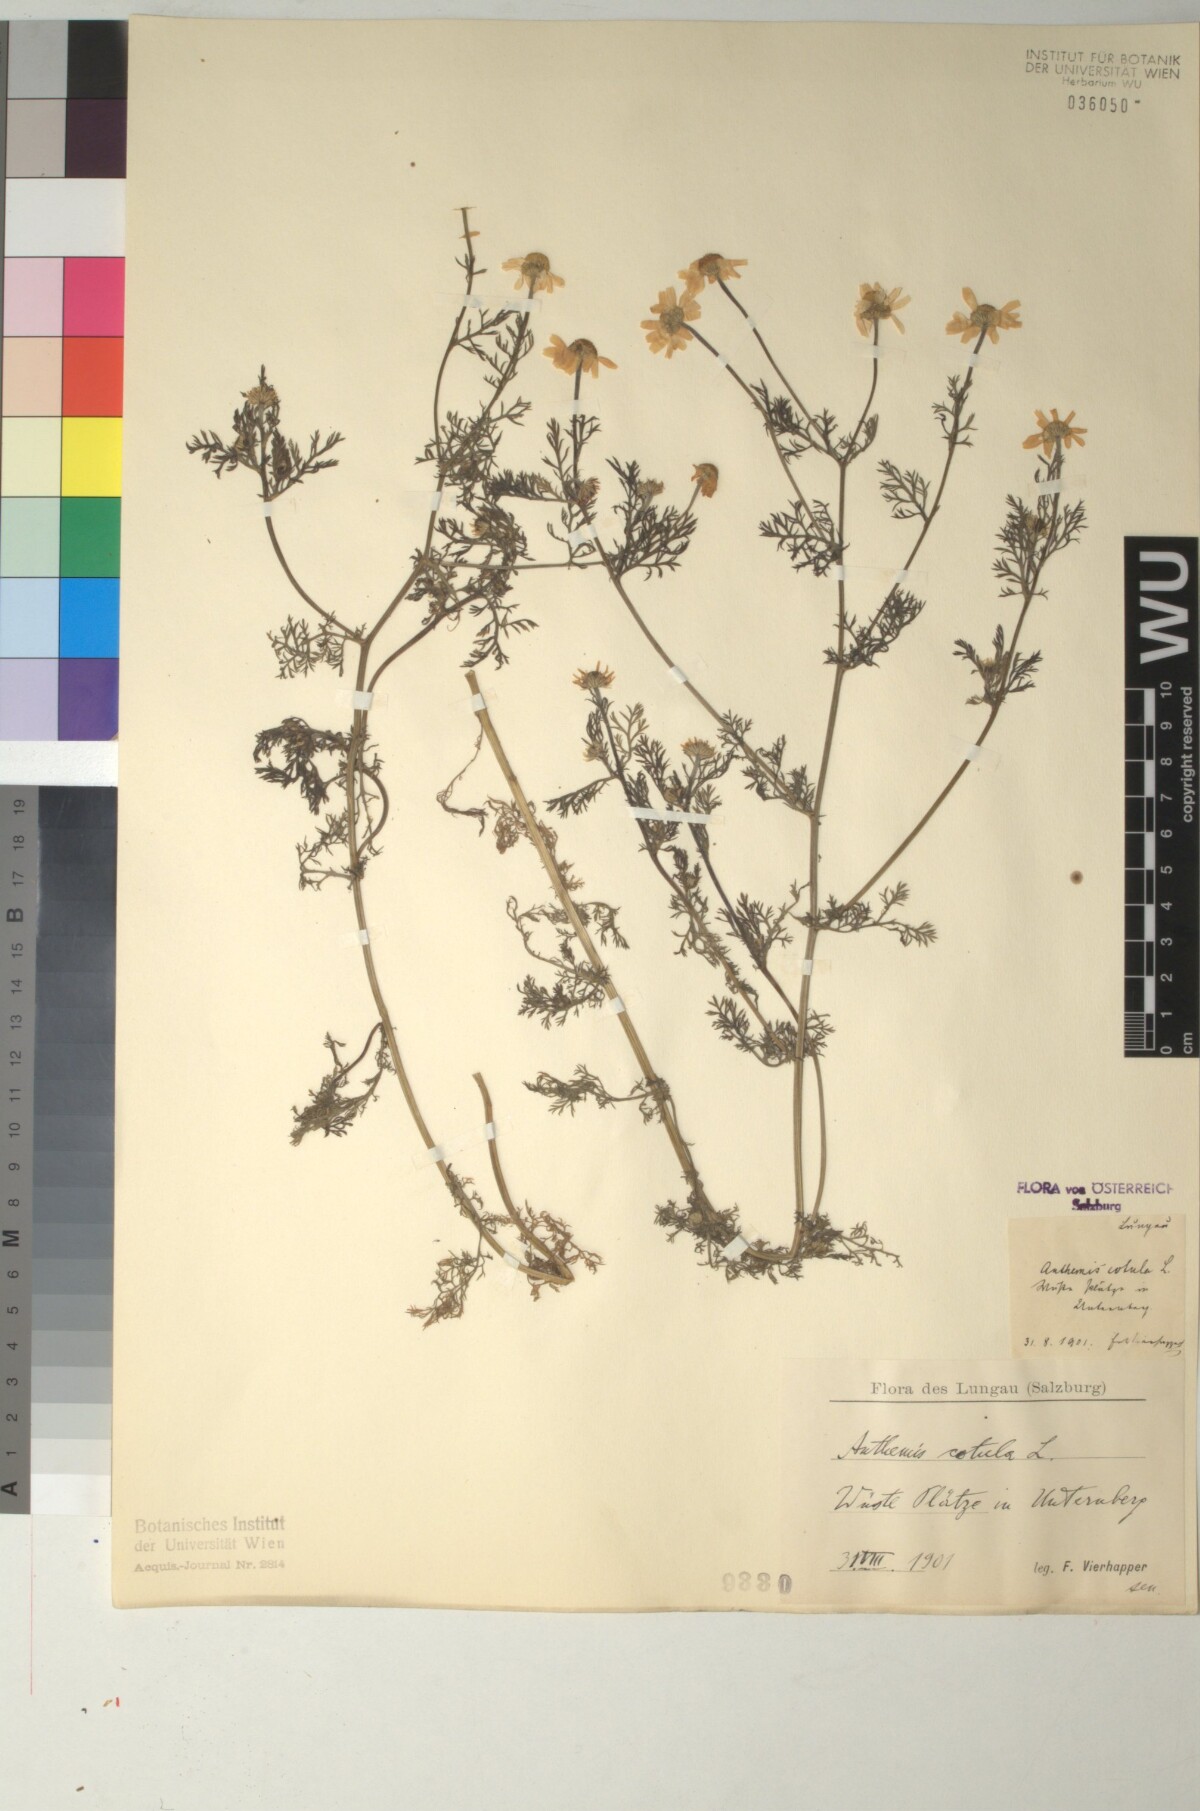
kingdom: Plantae
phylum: Tracheophyta
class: Magnoliopsida
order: Asterales
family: Asteraceae
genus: Anthemis
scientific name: Anthemis cotula
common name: Stinking chamomile
